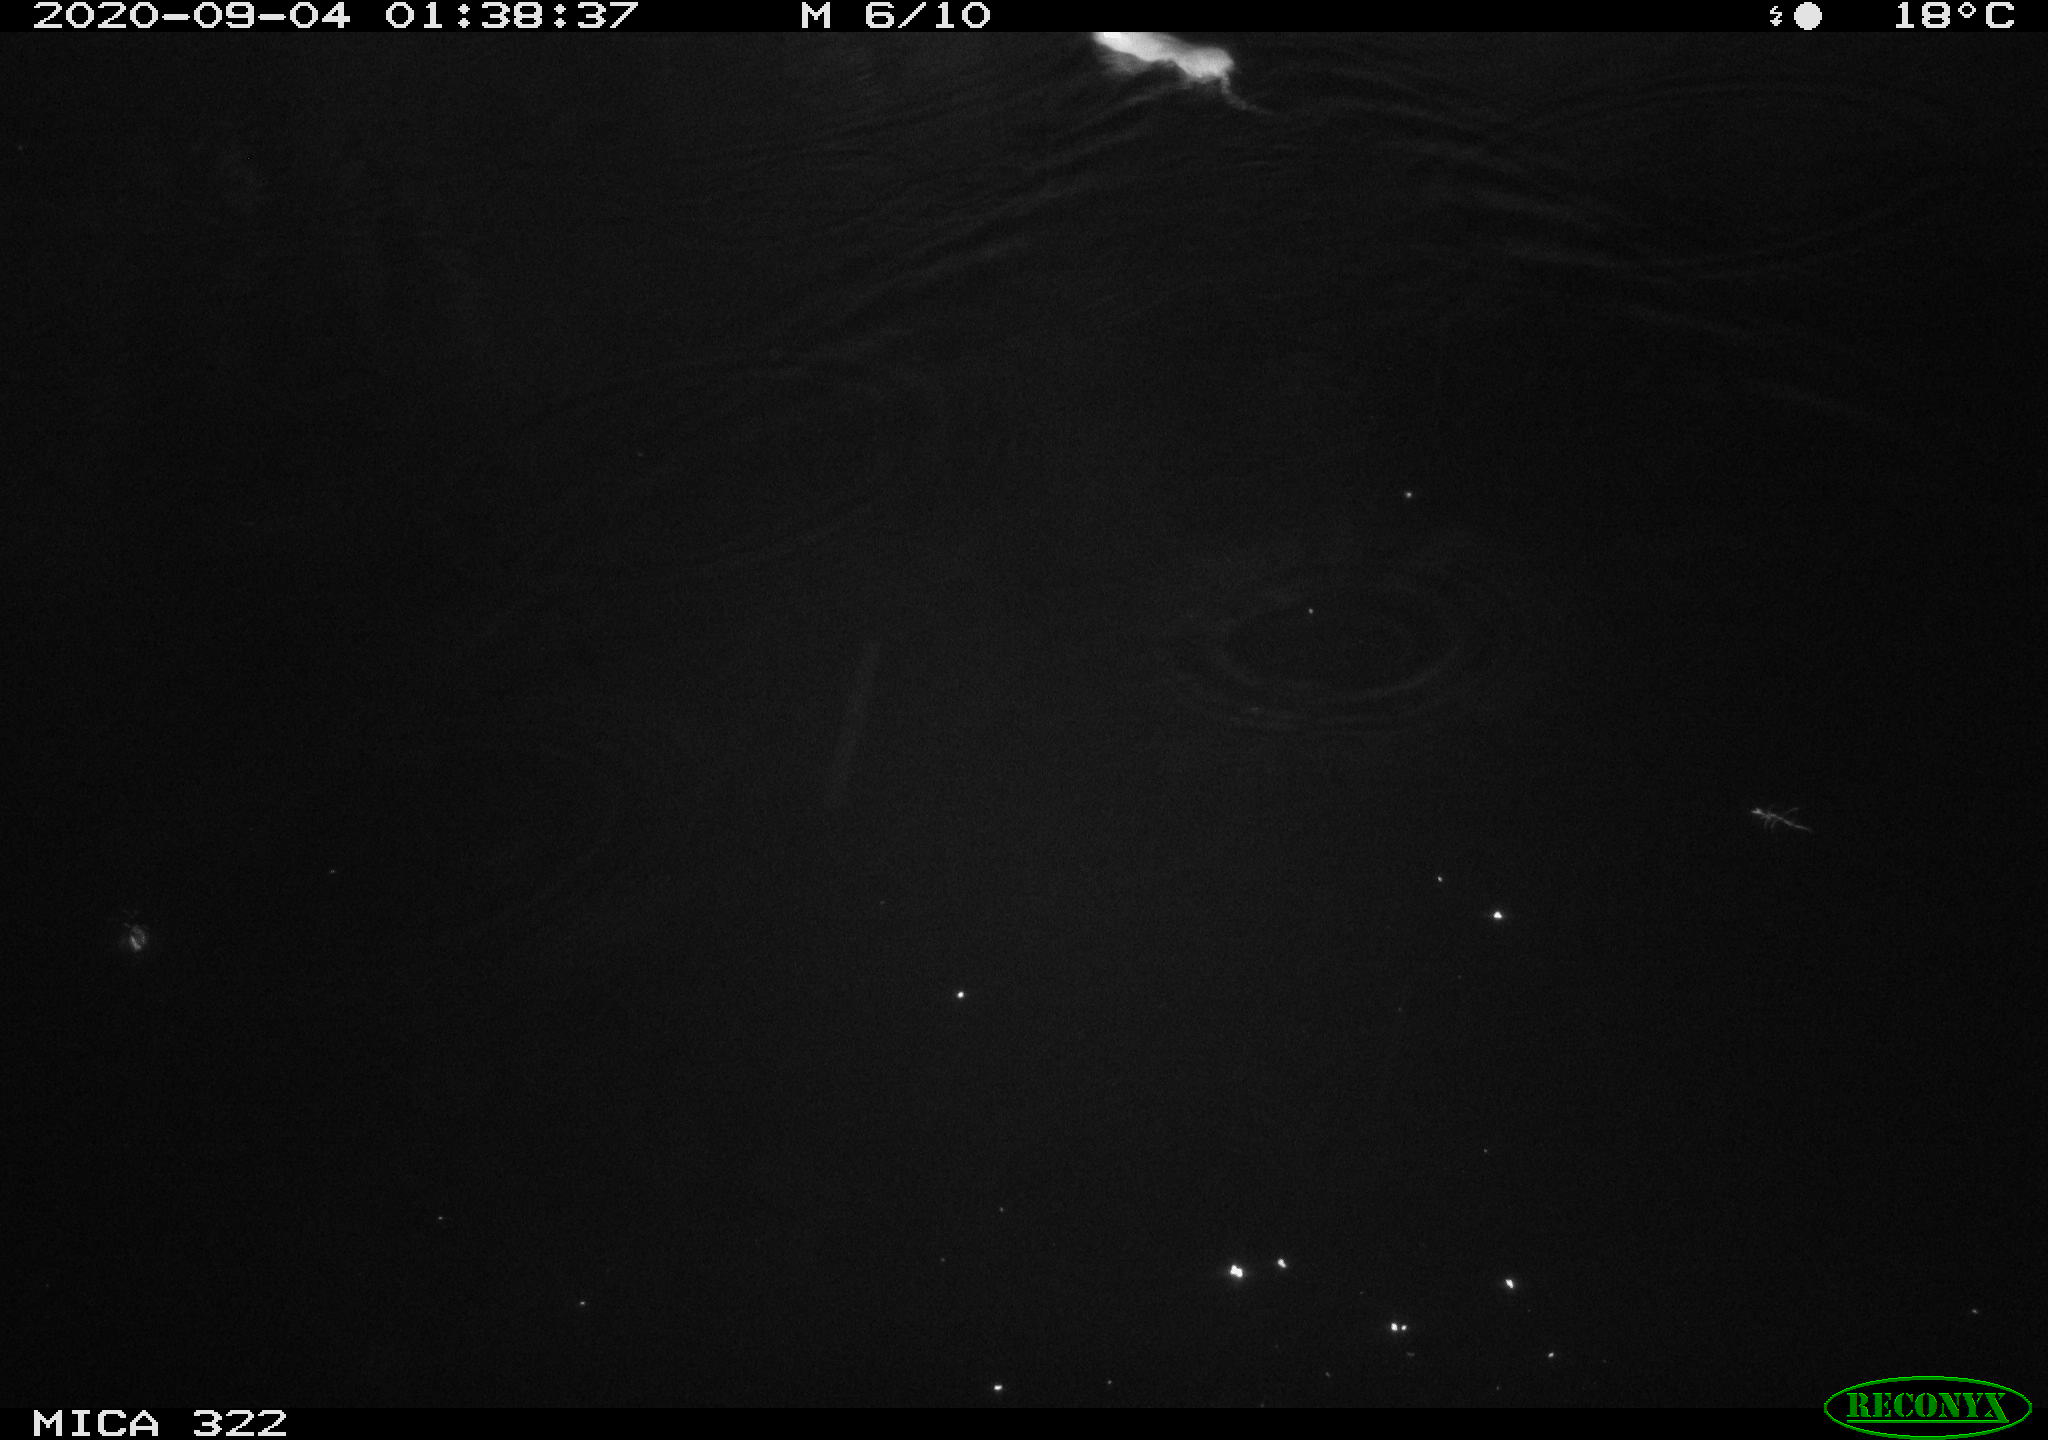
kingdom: Animalia
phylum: Chordata
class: Mammalia
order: Rodentia
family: Muridae
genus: Rattus
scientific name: Rattus norvegicus
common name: Brown rat
